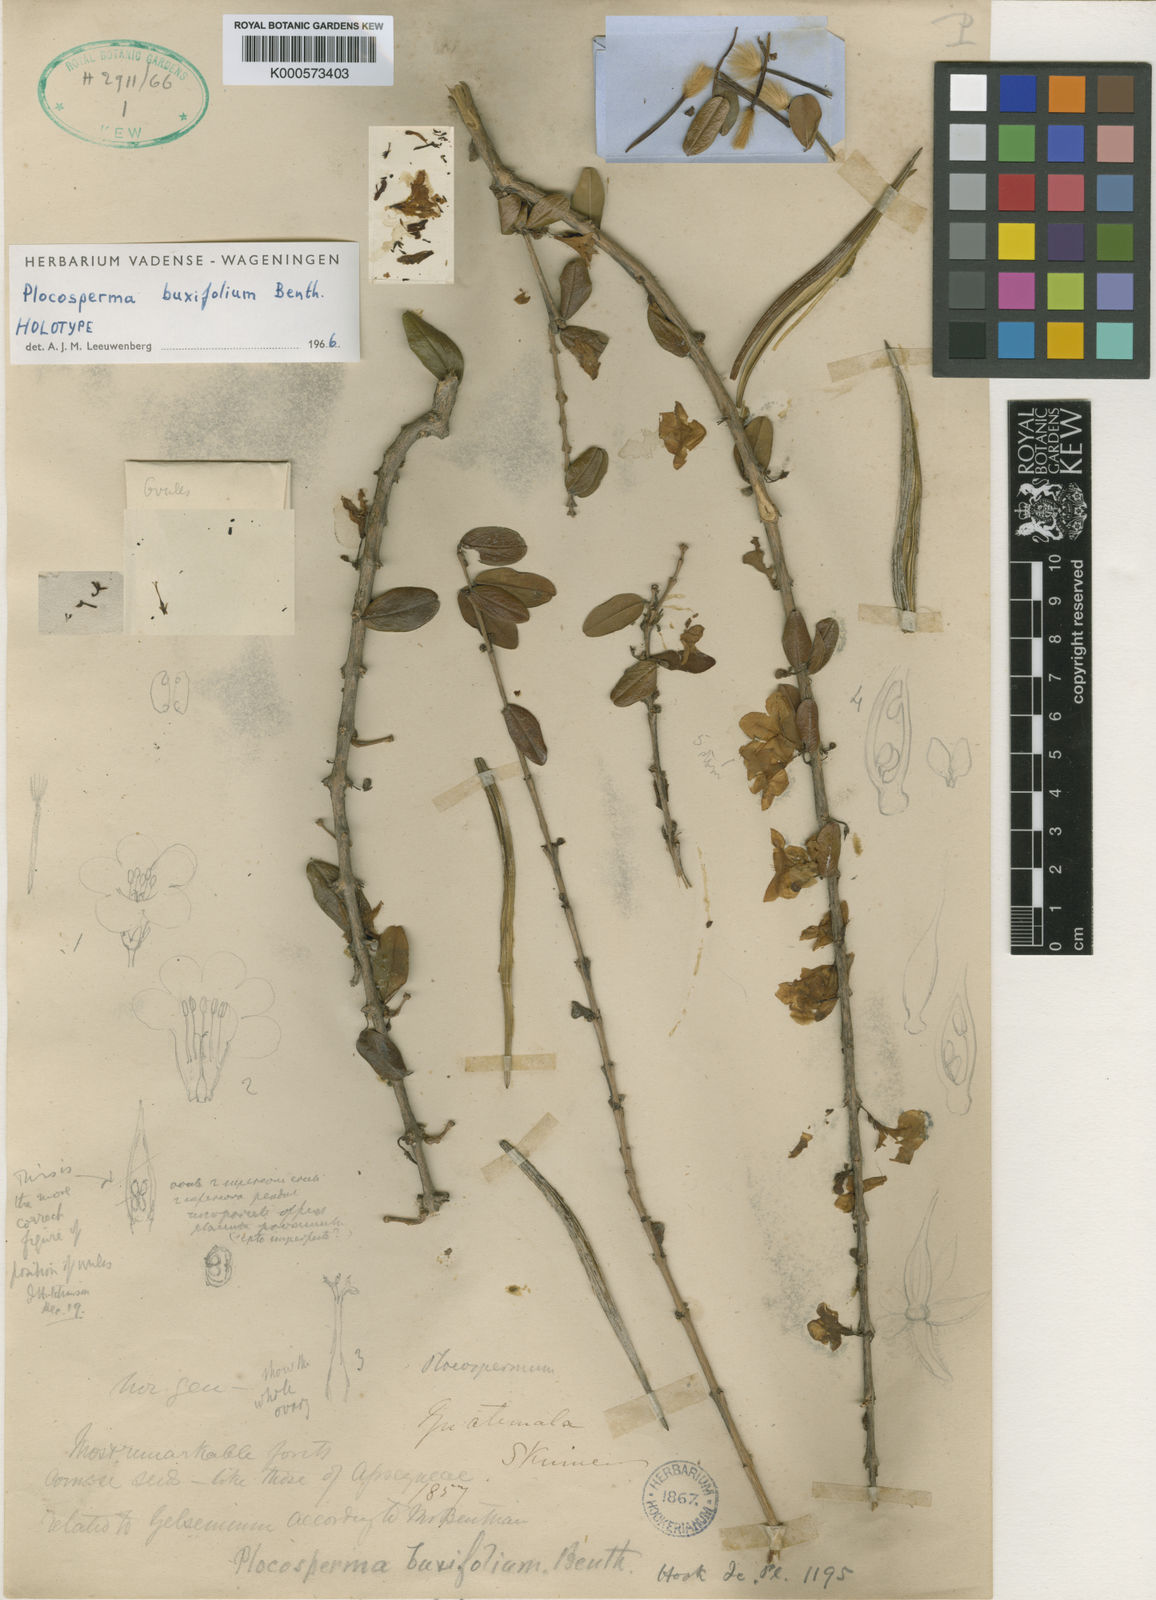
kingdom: Plantae
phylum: Tracheophyta
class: Magnoliopsida
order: Lamiales
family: Plocospermataceae
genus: Plocosperma
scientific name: Plocosperma buxifolium
